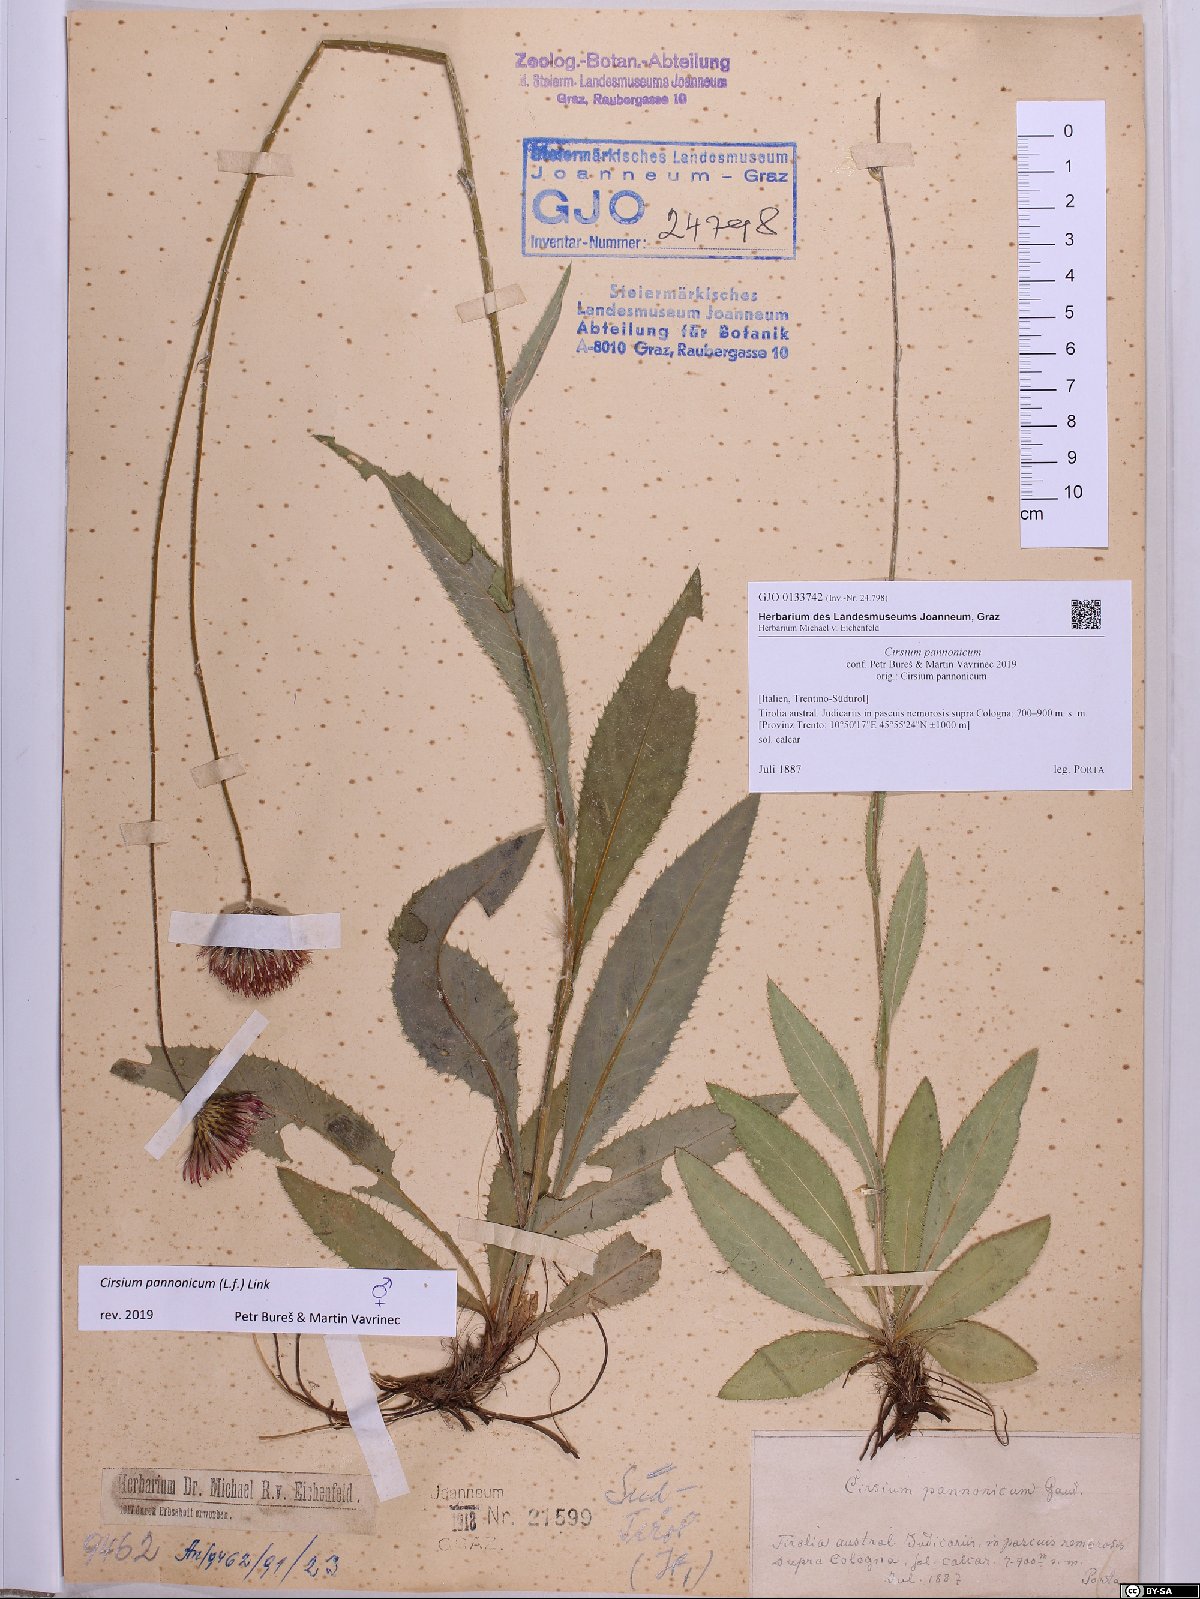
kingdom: Plantae
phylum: Tracheophyta
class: Magnoliopsida
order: Asterales
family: Asteraceae
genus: Cirsium
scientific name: Cirsium pannonicum
